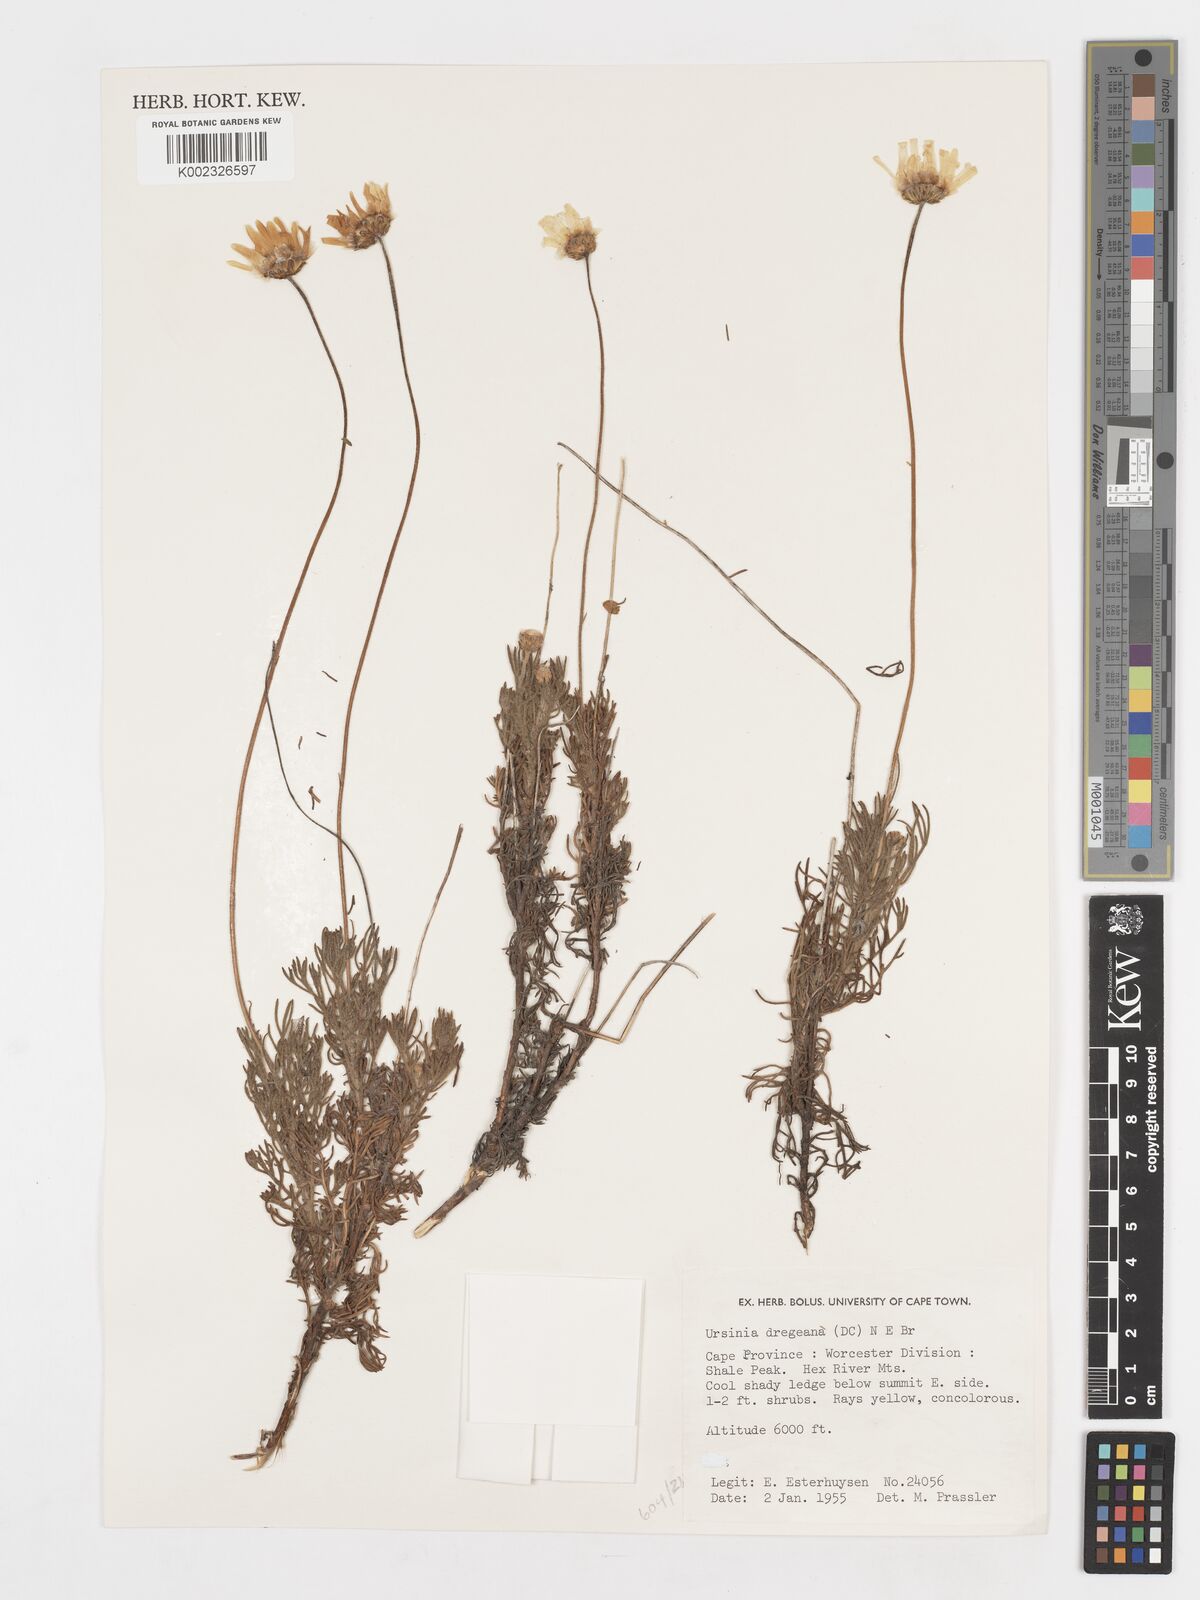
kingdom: Plantae
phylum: Tracheophyta
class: Magnoliopsida
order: Asterales
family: Asteraceae
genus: Ursinia
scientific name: Ursinia dregeana
